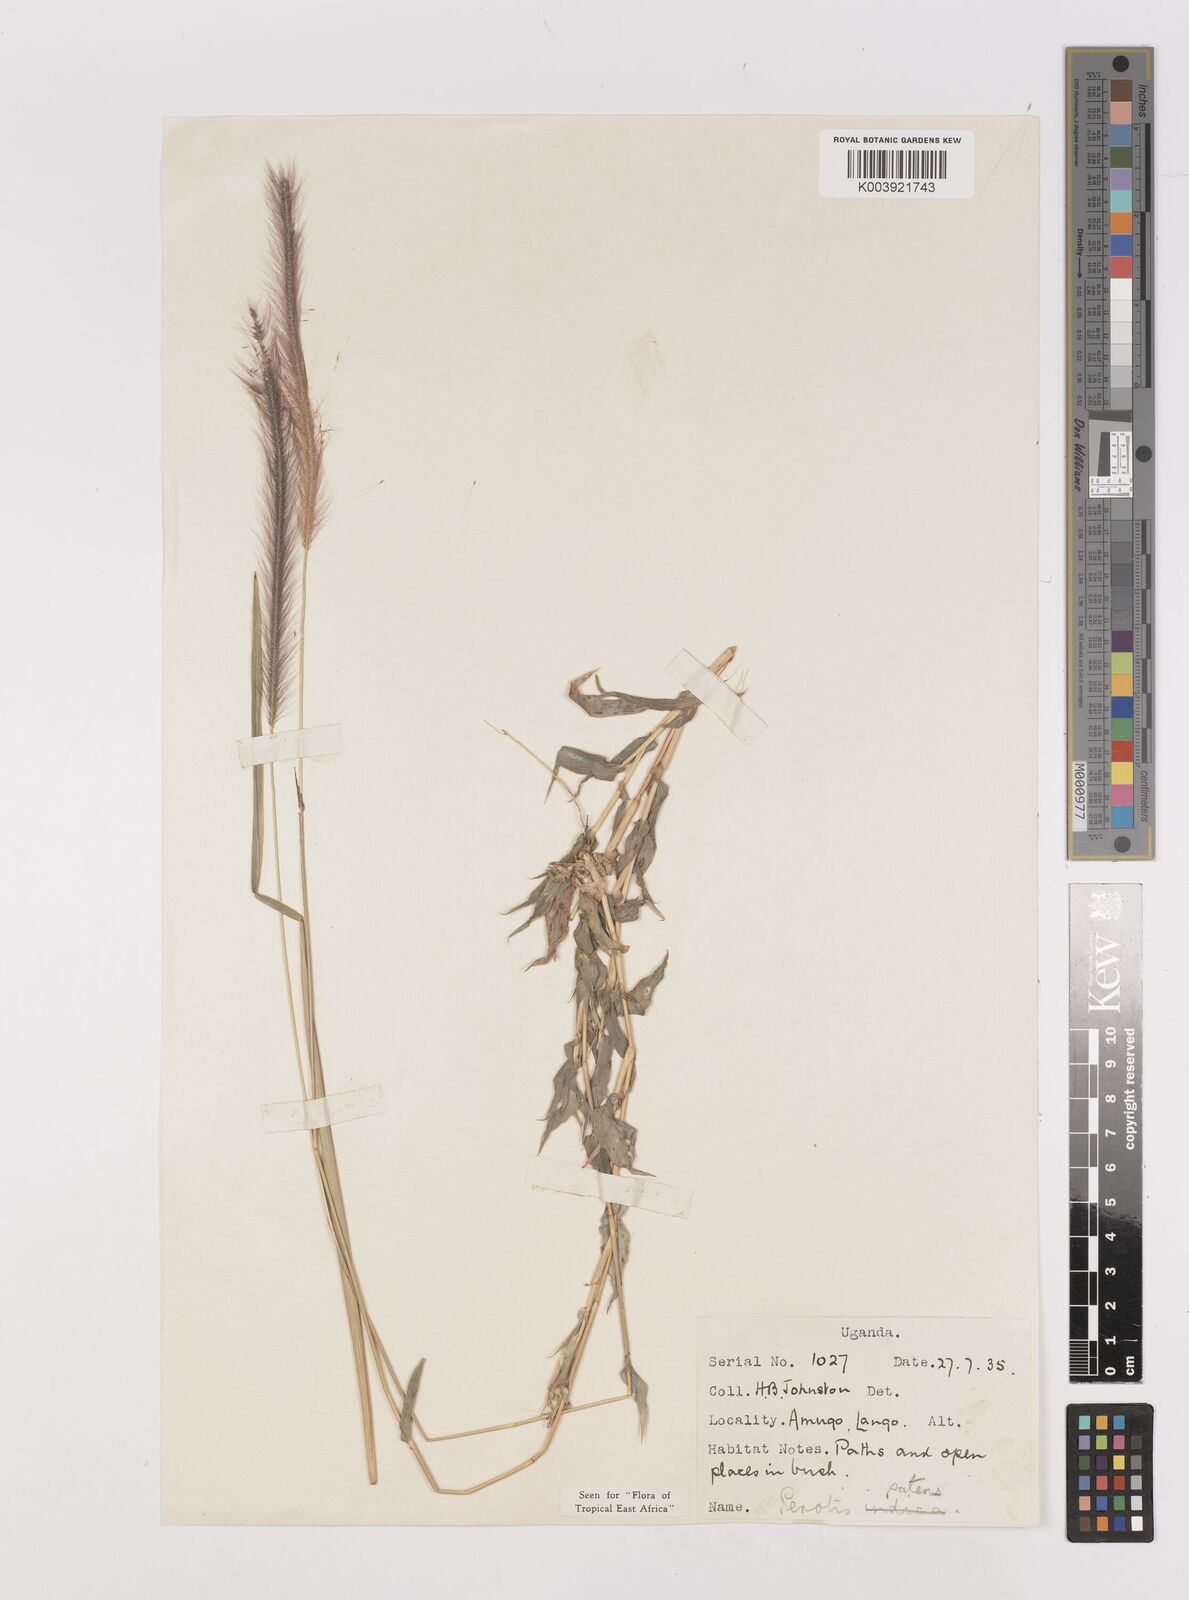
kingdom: Plantae
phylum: Tracheophyta
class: Liliopsida
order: Poales
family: Poaceae
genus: Perotis
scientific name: Perotis patens
